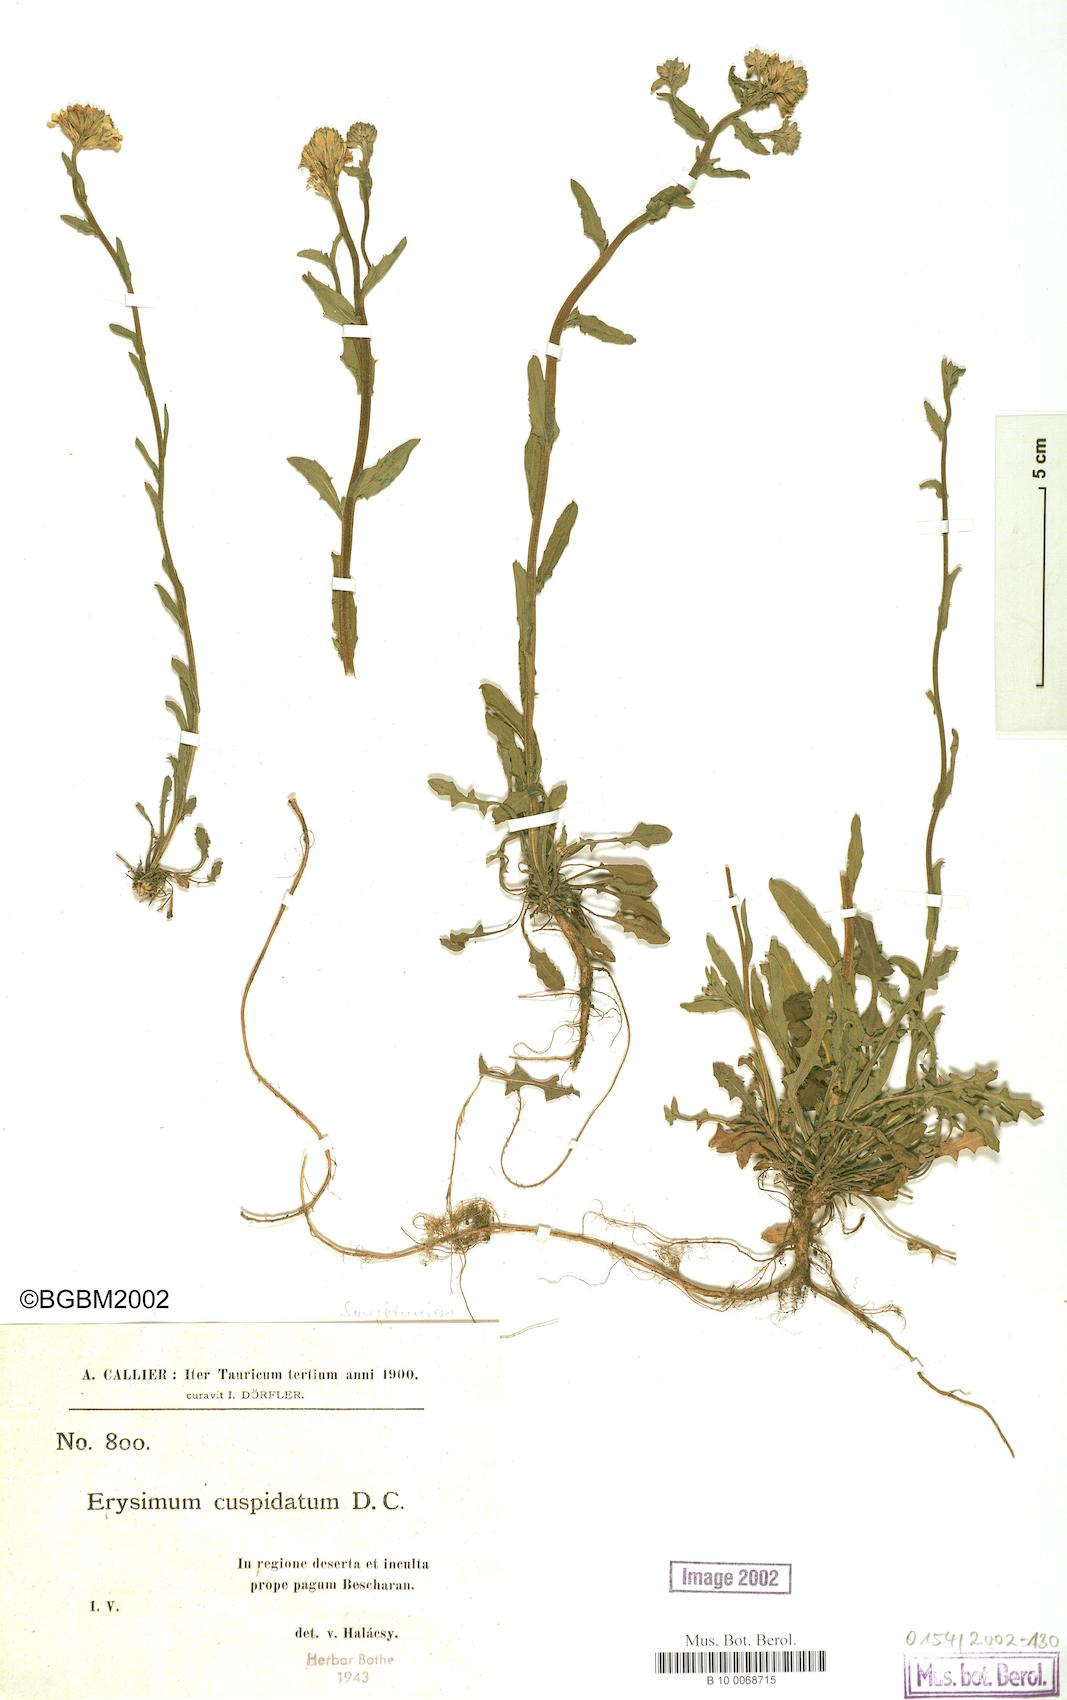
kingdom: Plantae
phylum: Tracheophyta
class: Magnoliopsida
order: Brassicales
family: Brassicaceae
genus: Erysimum
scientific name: Erysimum cuspidatum
